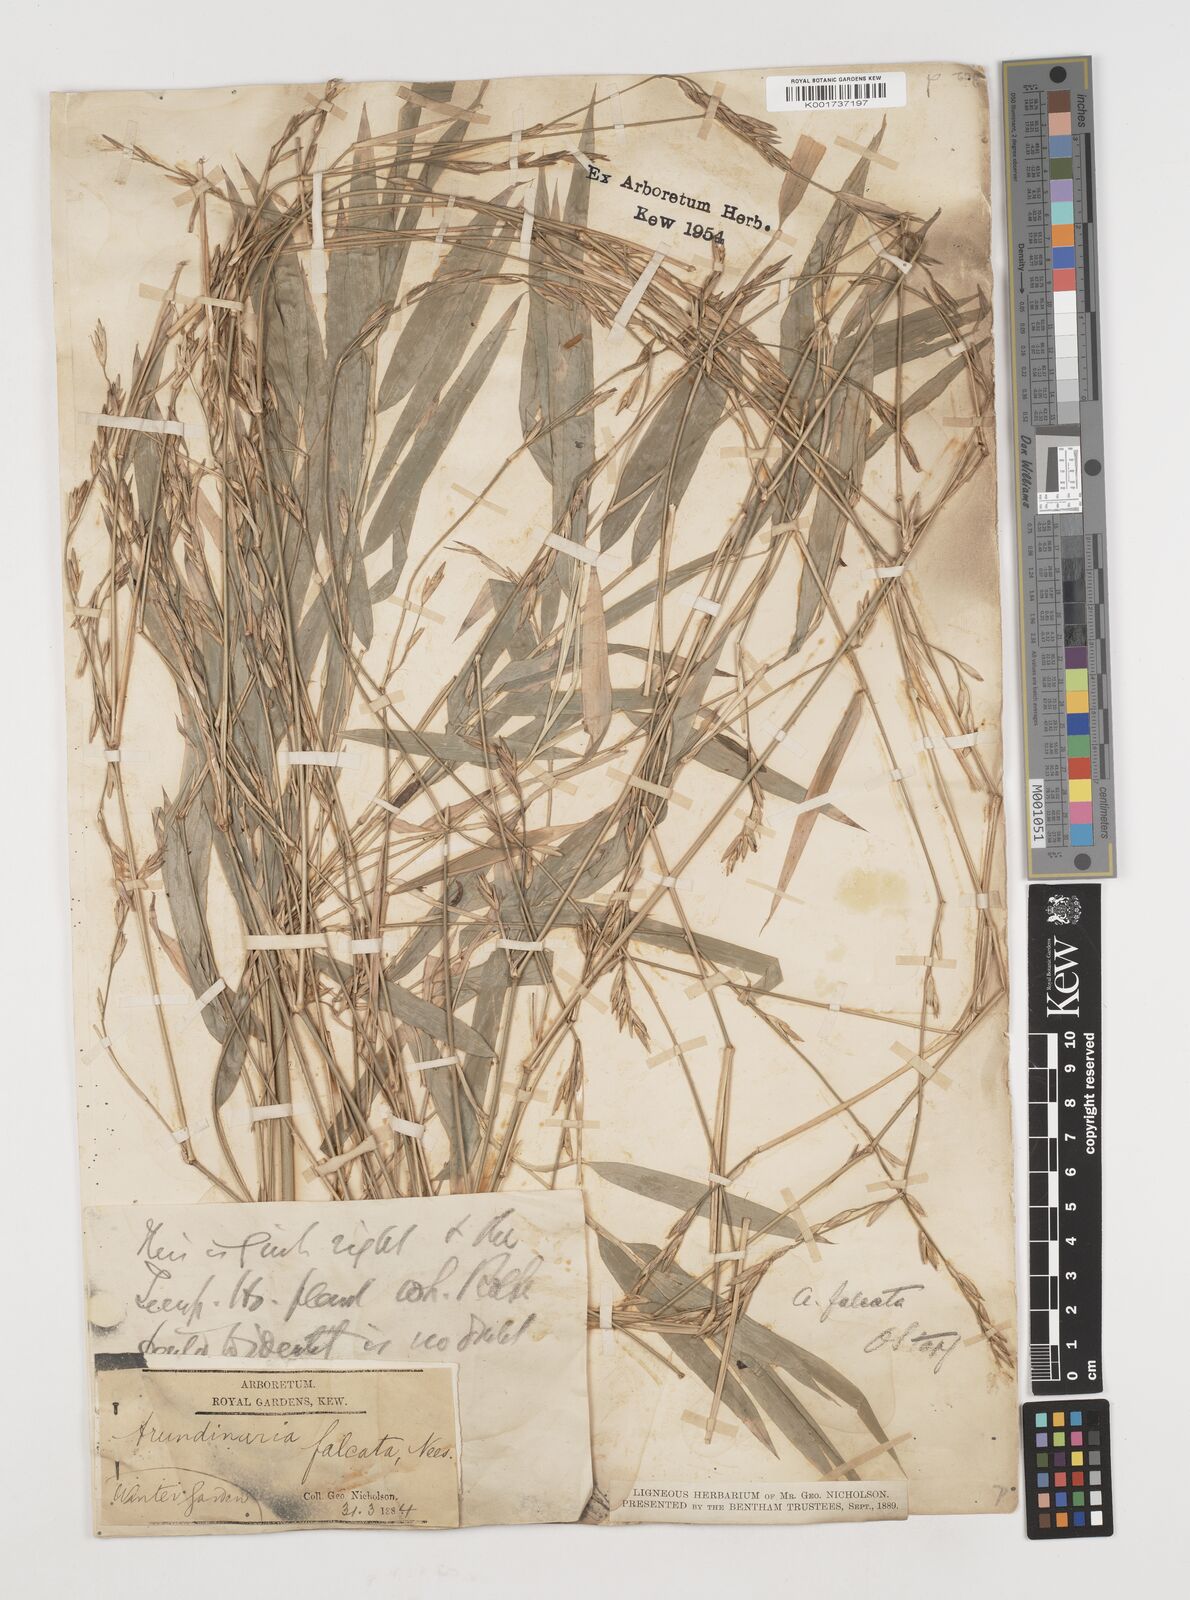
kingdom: Plantae
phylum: Tracheophyta
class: Liliopsida
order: Poales
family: Poaceae
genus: Himalayacalamus
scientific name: Himalayacalamus hookerianus
